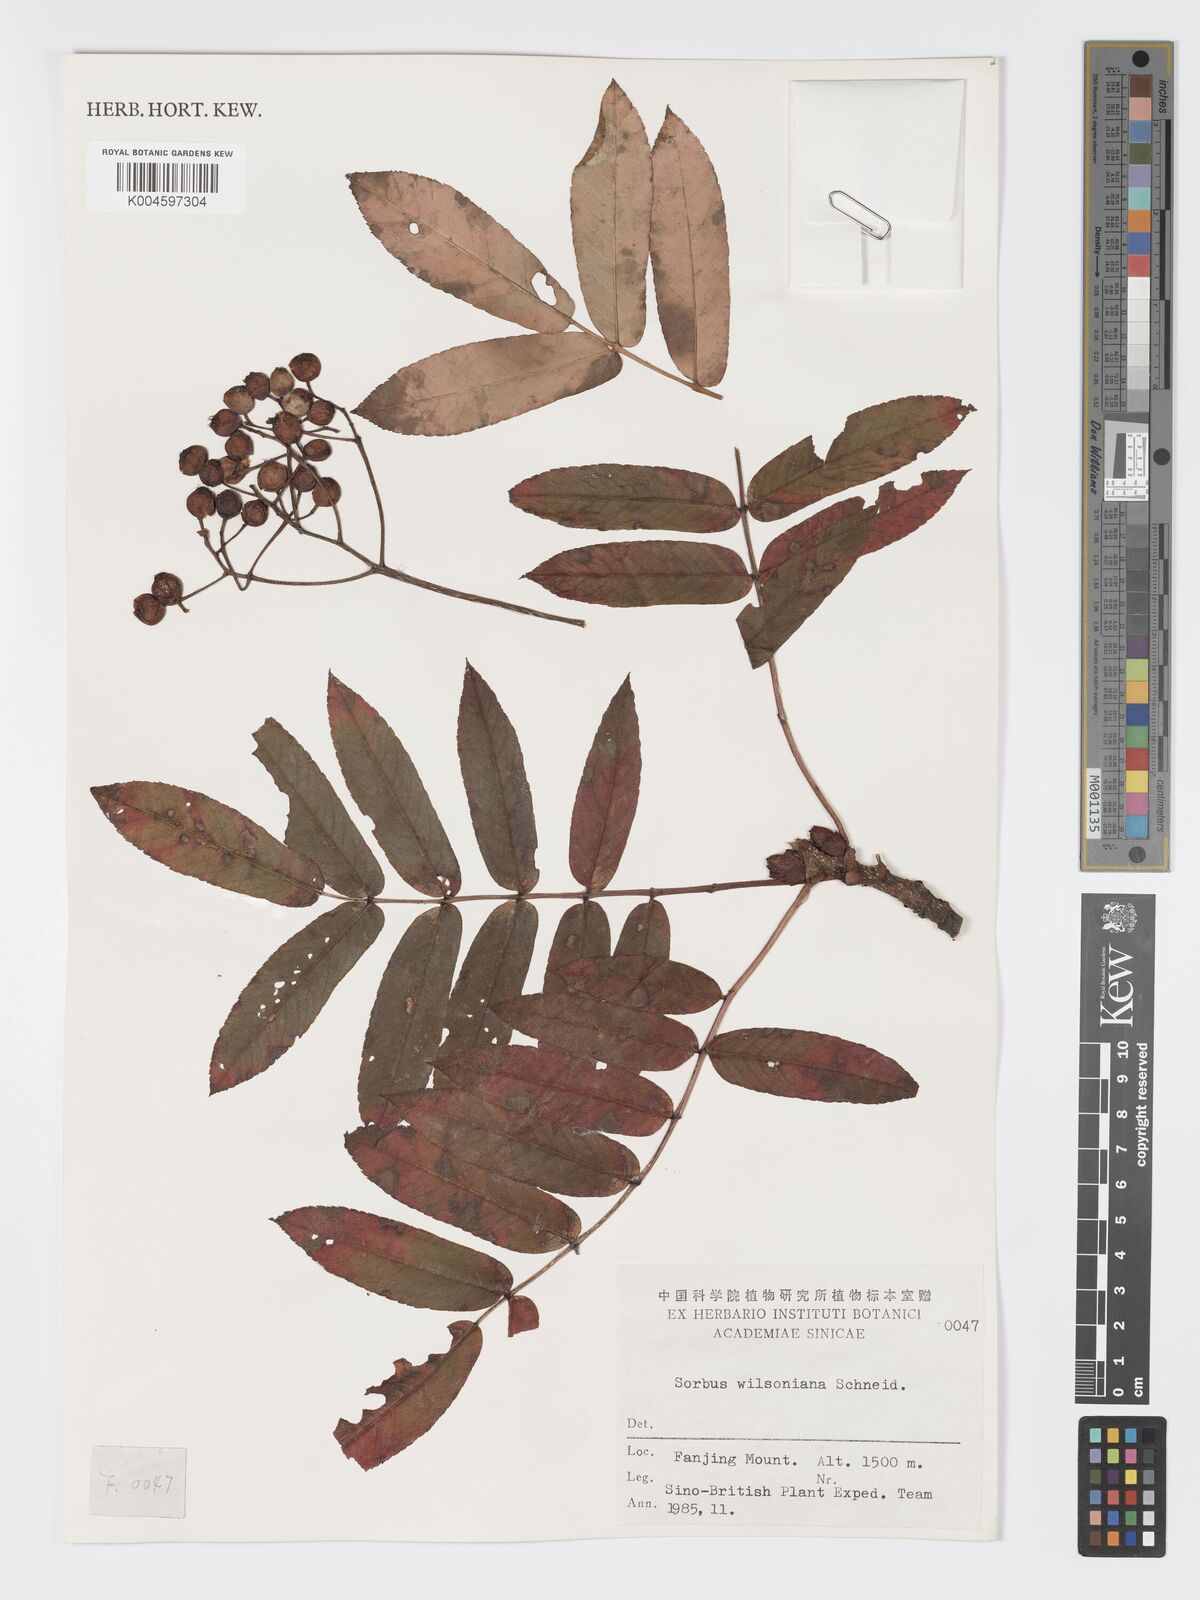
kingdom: Plantae
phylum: Tracheophyta
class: Magnoliopsida
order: Rosales
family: Rosaceae
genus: Sorbus
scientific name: Sorbus wilsoniana
